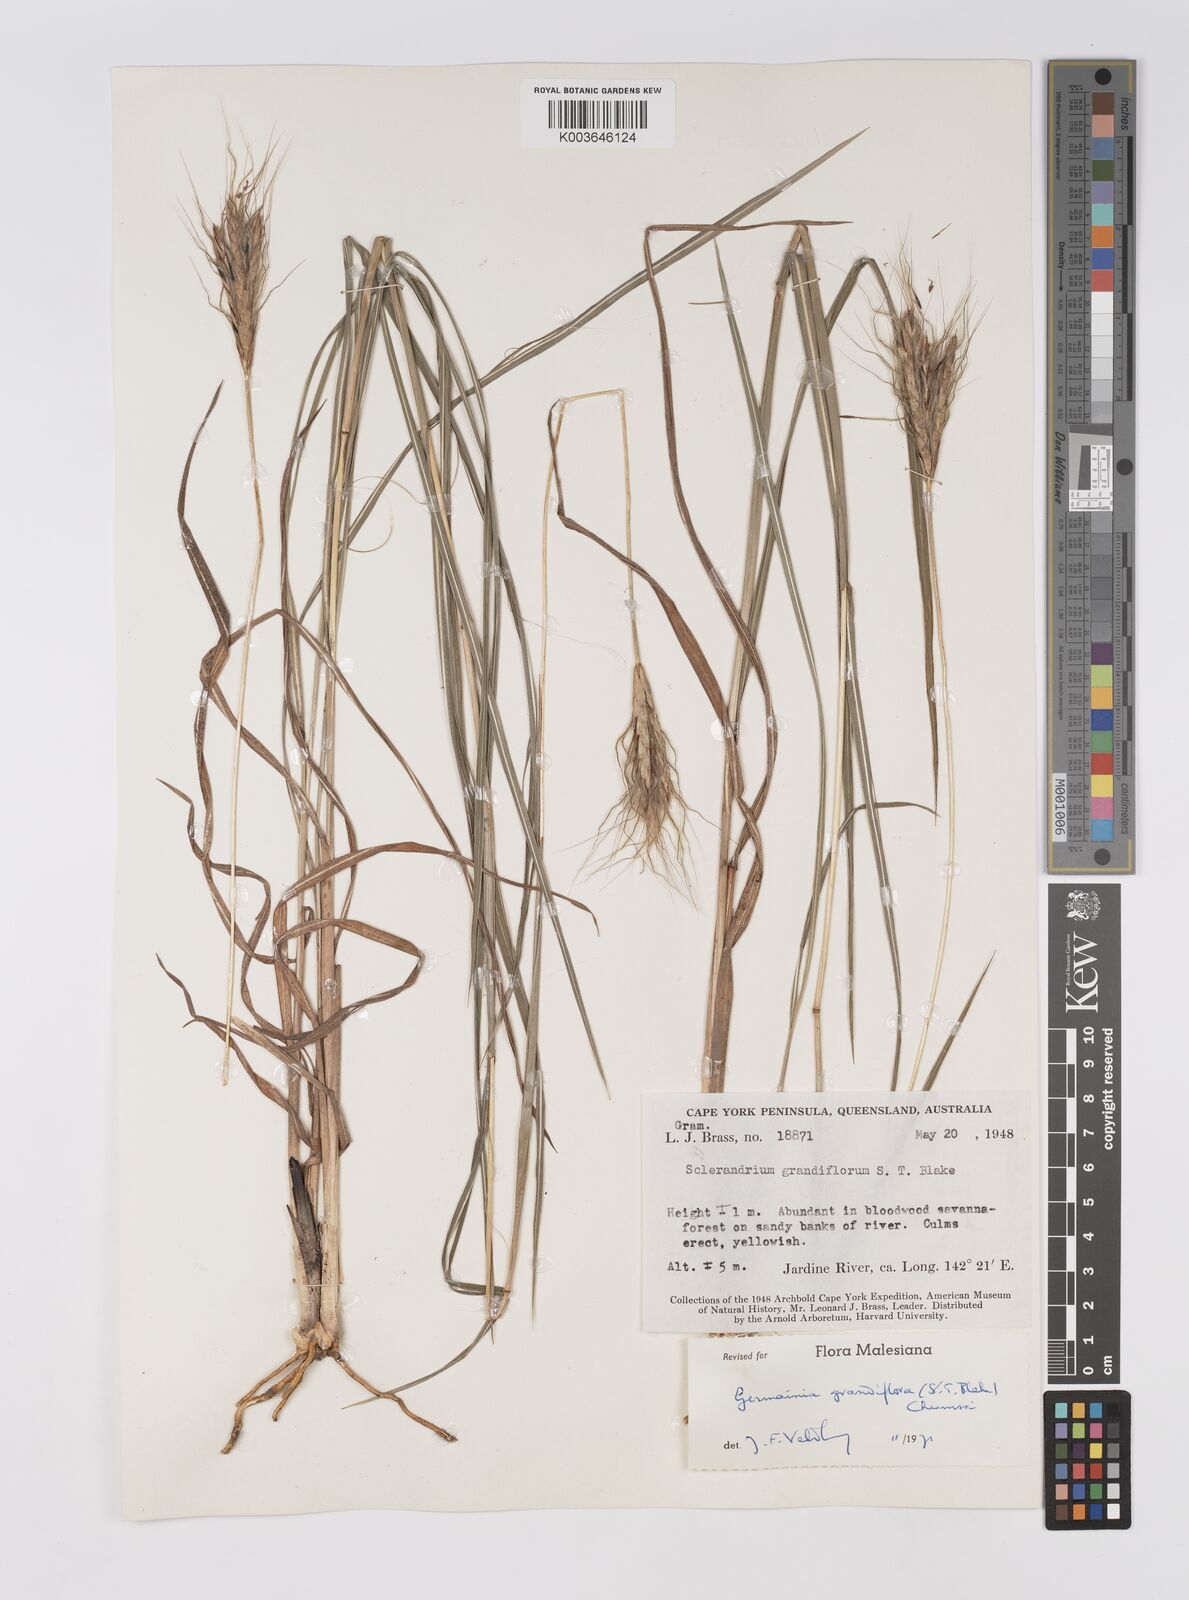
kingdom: Plantae
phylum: Tracheophyta
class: Liliopsida
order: Poales
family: Poaceae
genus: Germainia
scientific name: Germainia grandiflora
